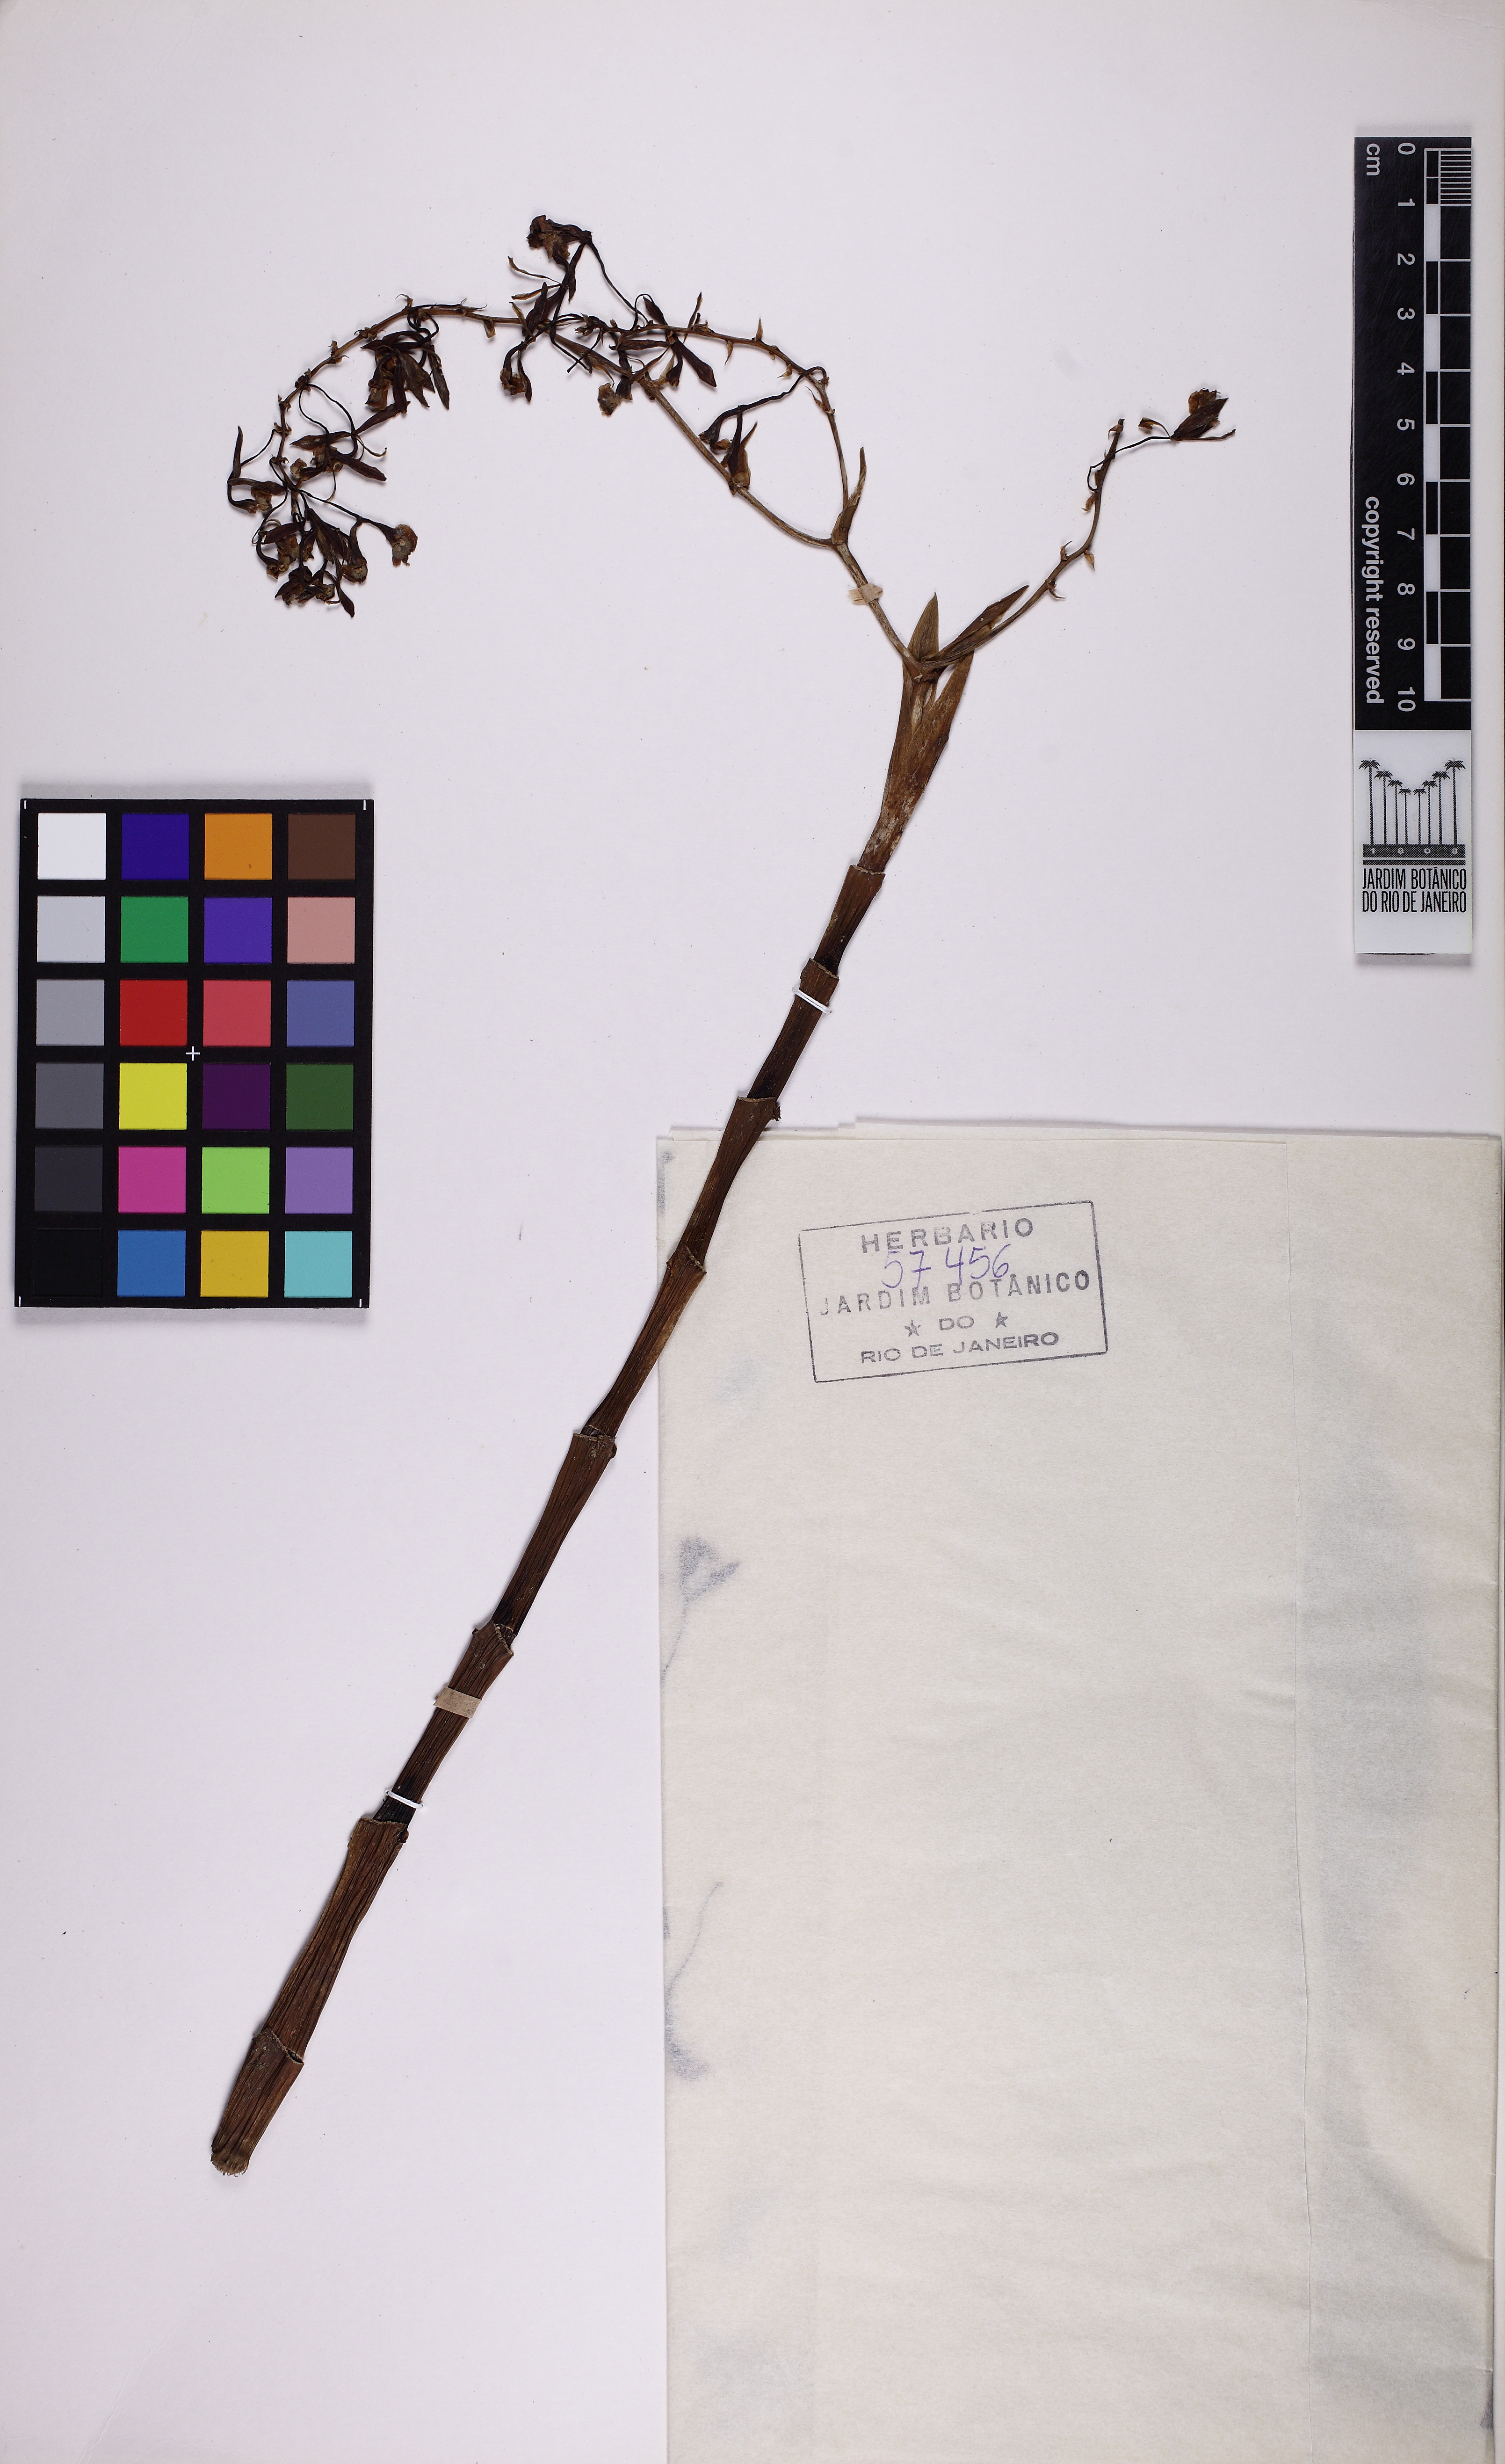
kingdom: Plantae
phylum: Tracheophyta
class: Liliopsida
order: Asparagales
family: Orchidaceae
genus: Epidendrum
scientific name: Epidendrum densiflorum
